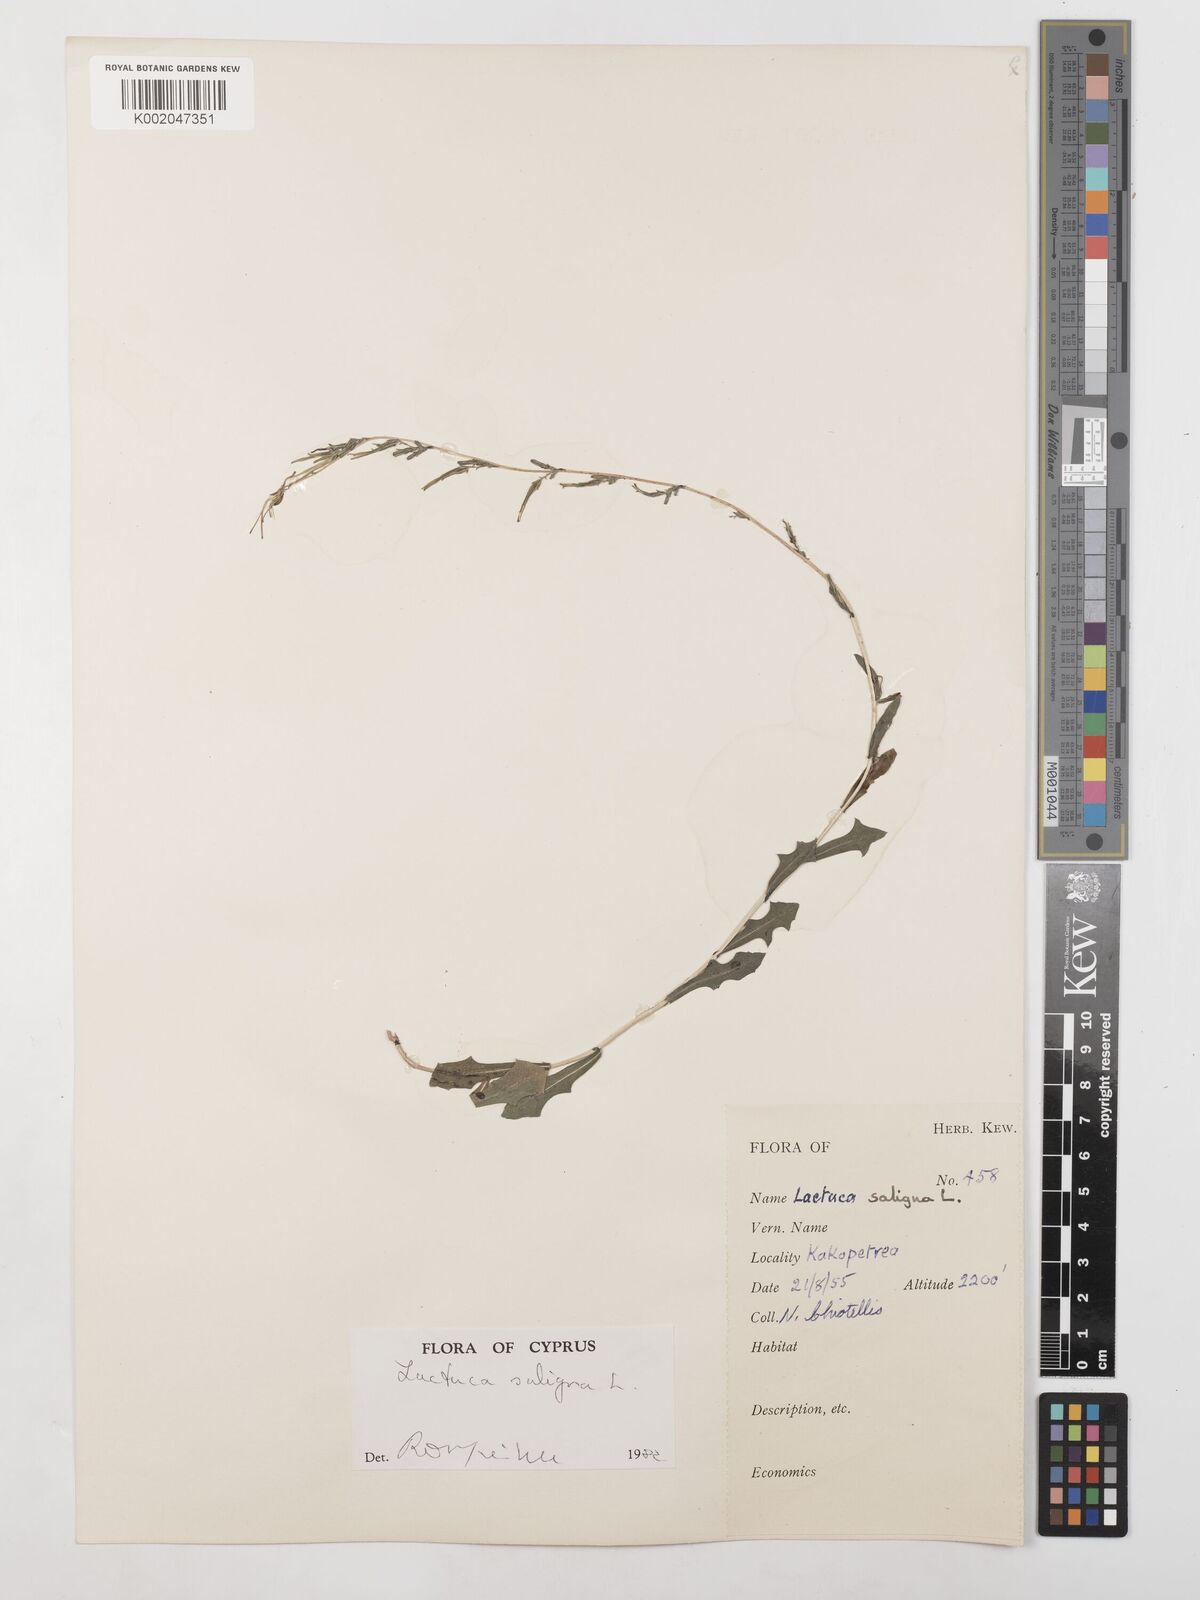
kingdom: Plantae
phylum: Tracheophyta
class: Magnoliopsida
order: Asterales
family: Asteraceae
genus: Lactuca
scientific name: Lactuca saligna
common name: Wild lettuce
